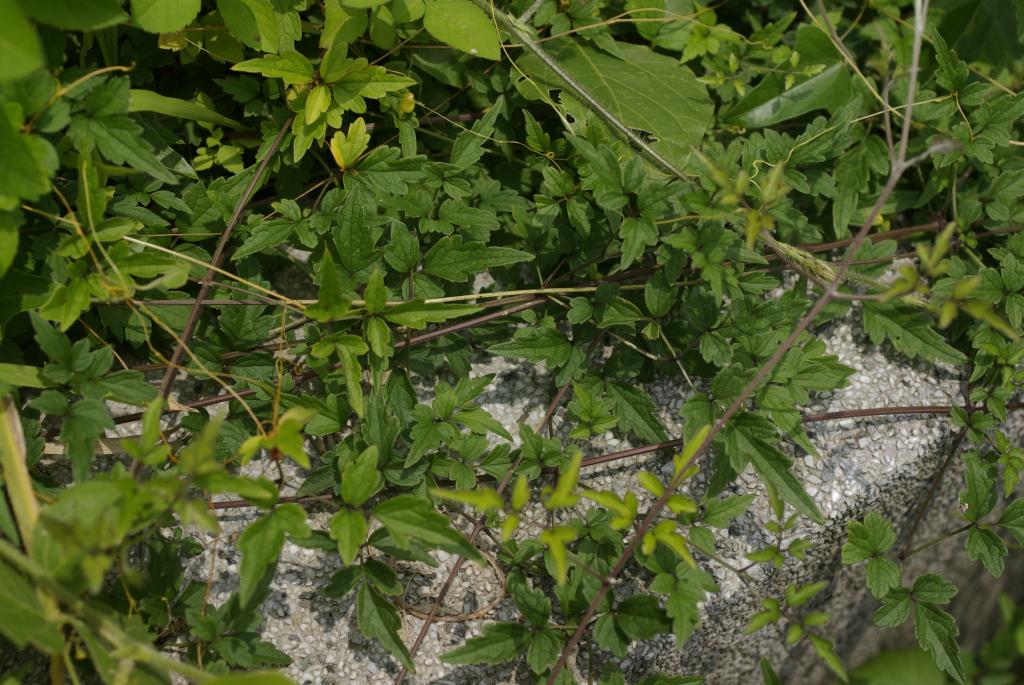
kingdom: Plantae
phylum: Tracheophyta
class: Magnoliopsida
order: Ranunculales
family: Ranunculaceae
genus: Clematis
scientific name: Clematis grata
